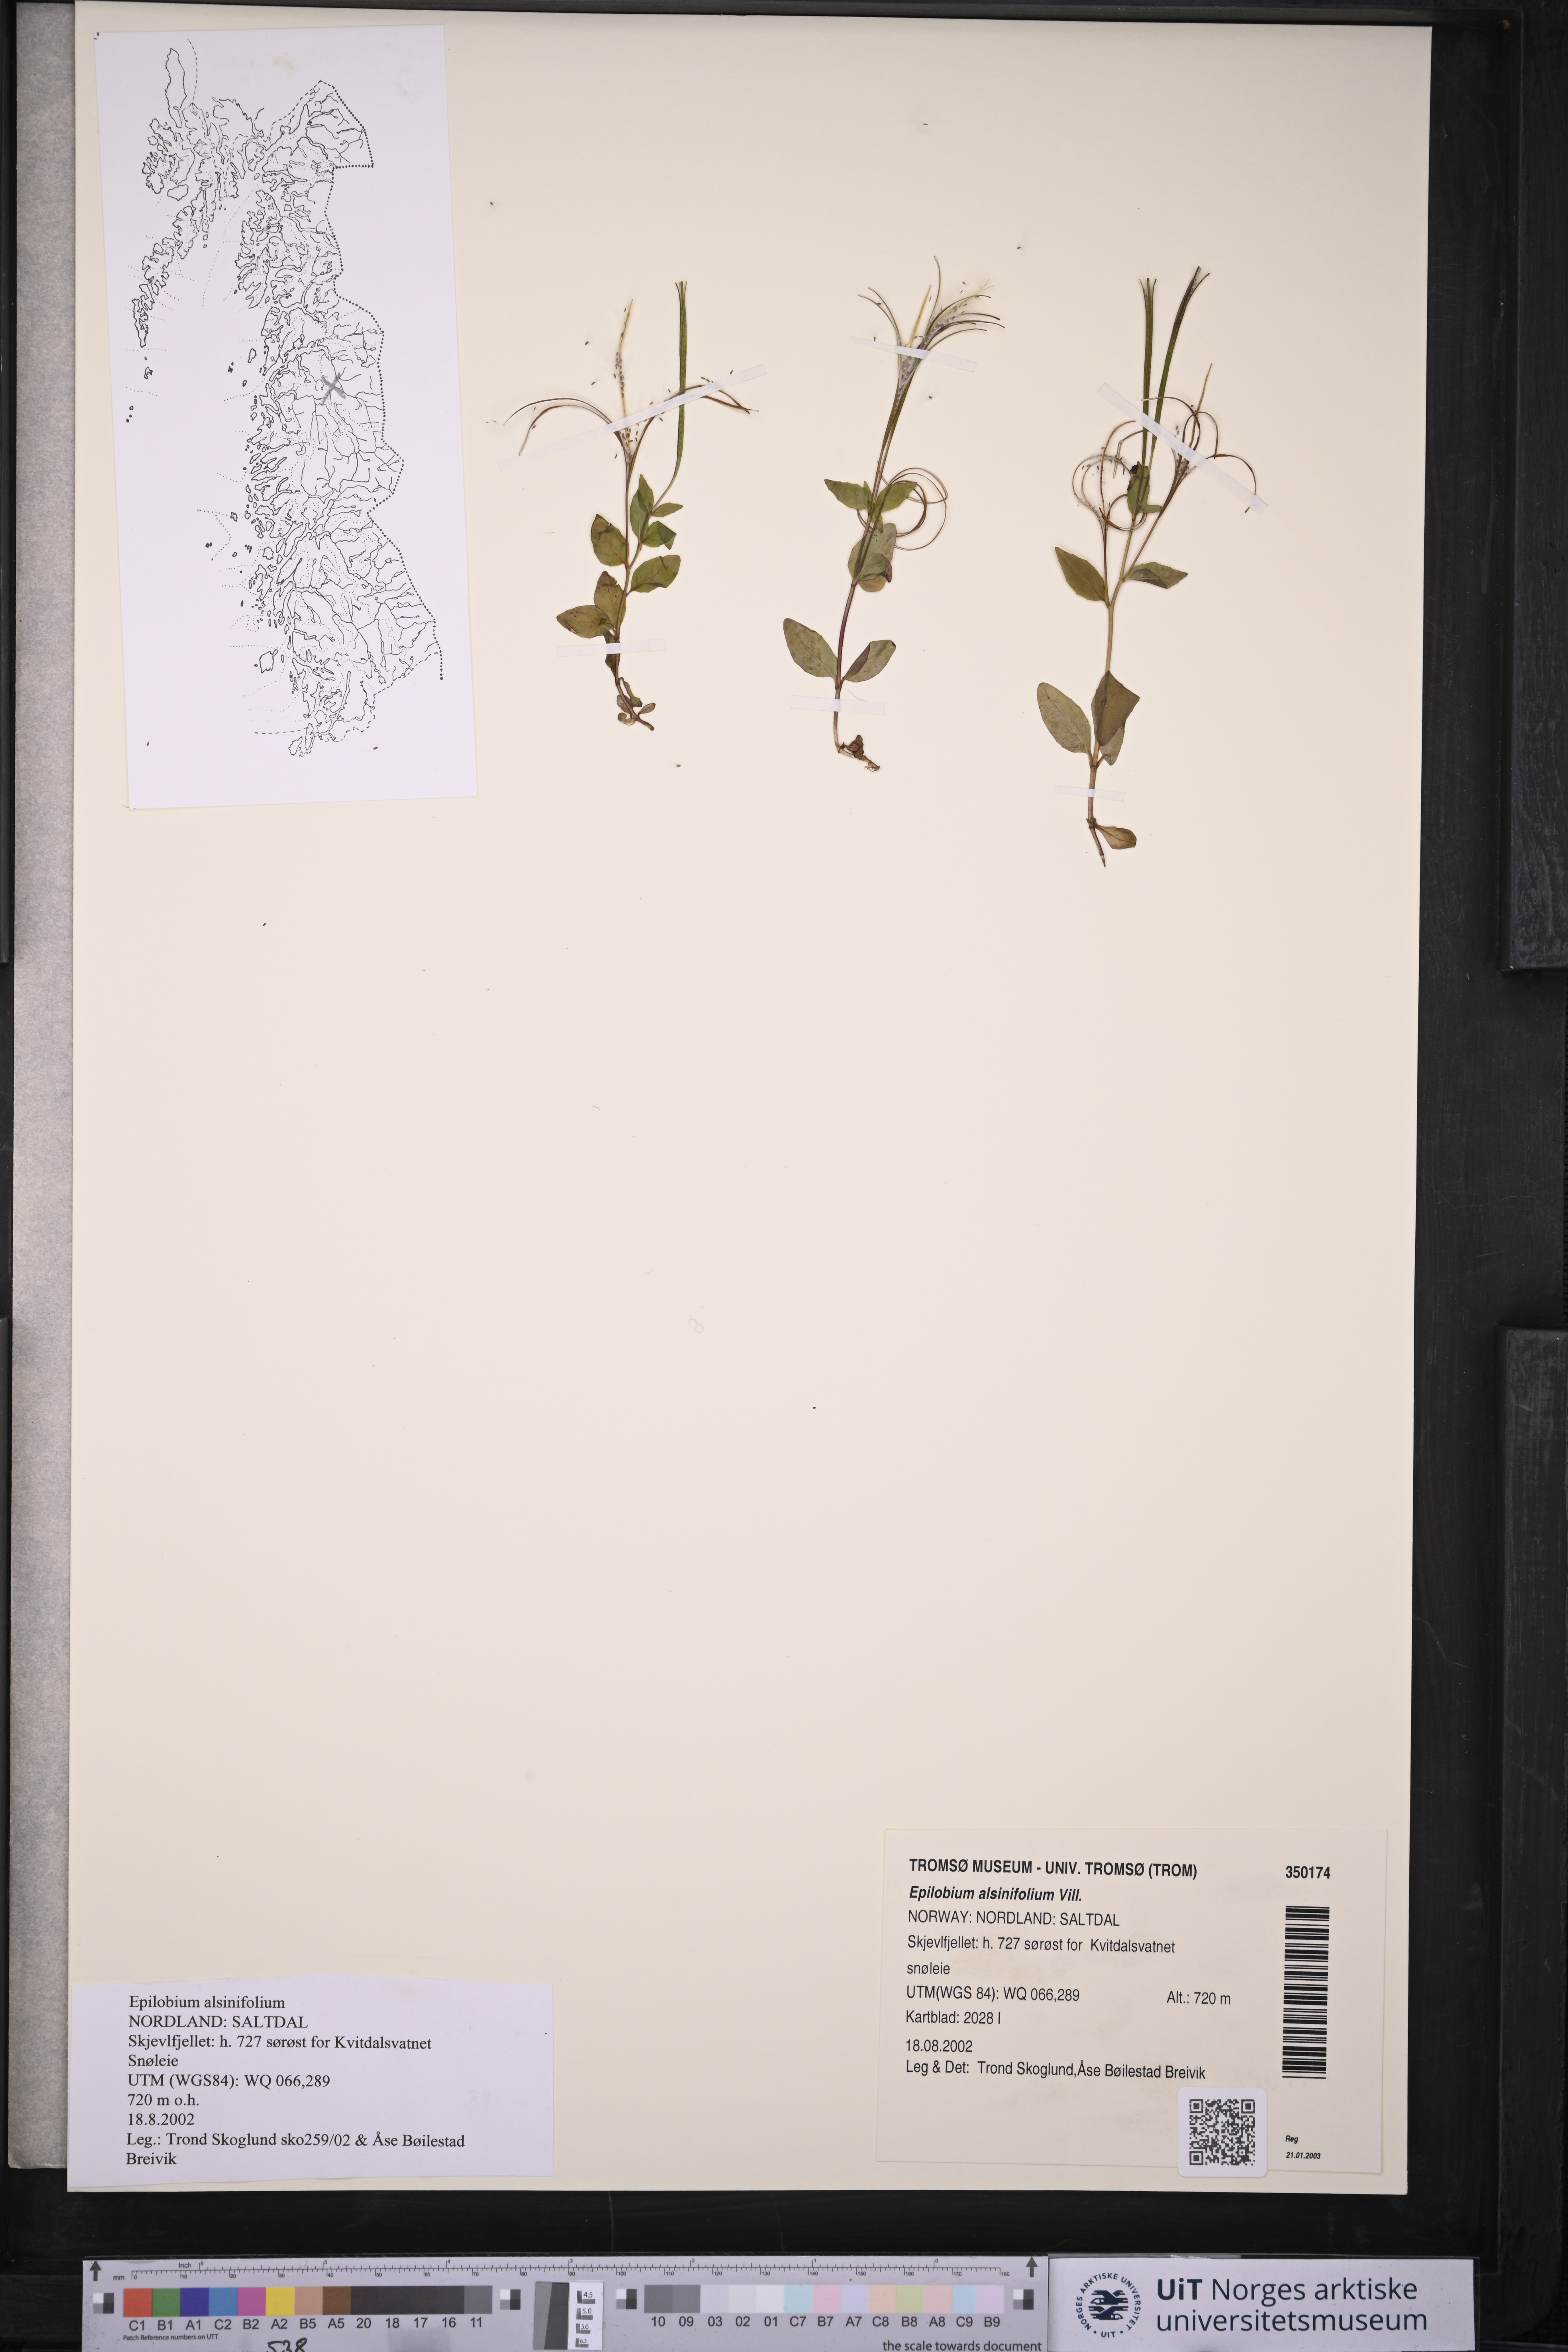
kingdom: Plantae
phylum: Tracheophyta
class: Magnoliopsida
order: Myrtales
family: Onagraceae
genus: Epilobium
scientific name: Epilobium alsinifolium
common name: Chickweed willowherb
